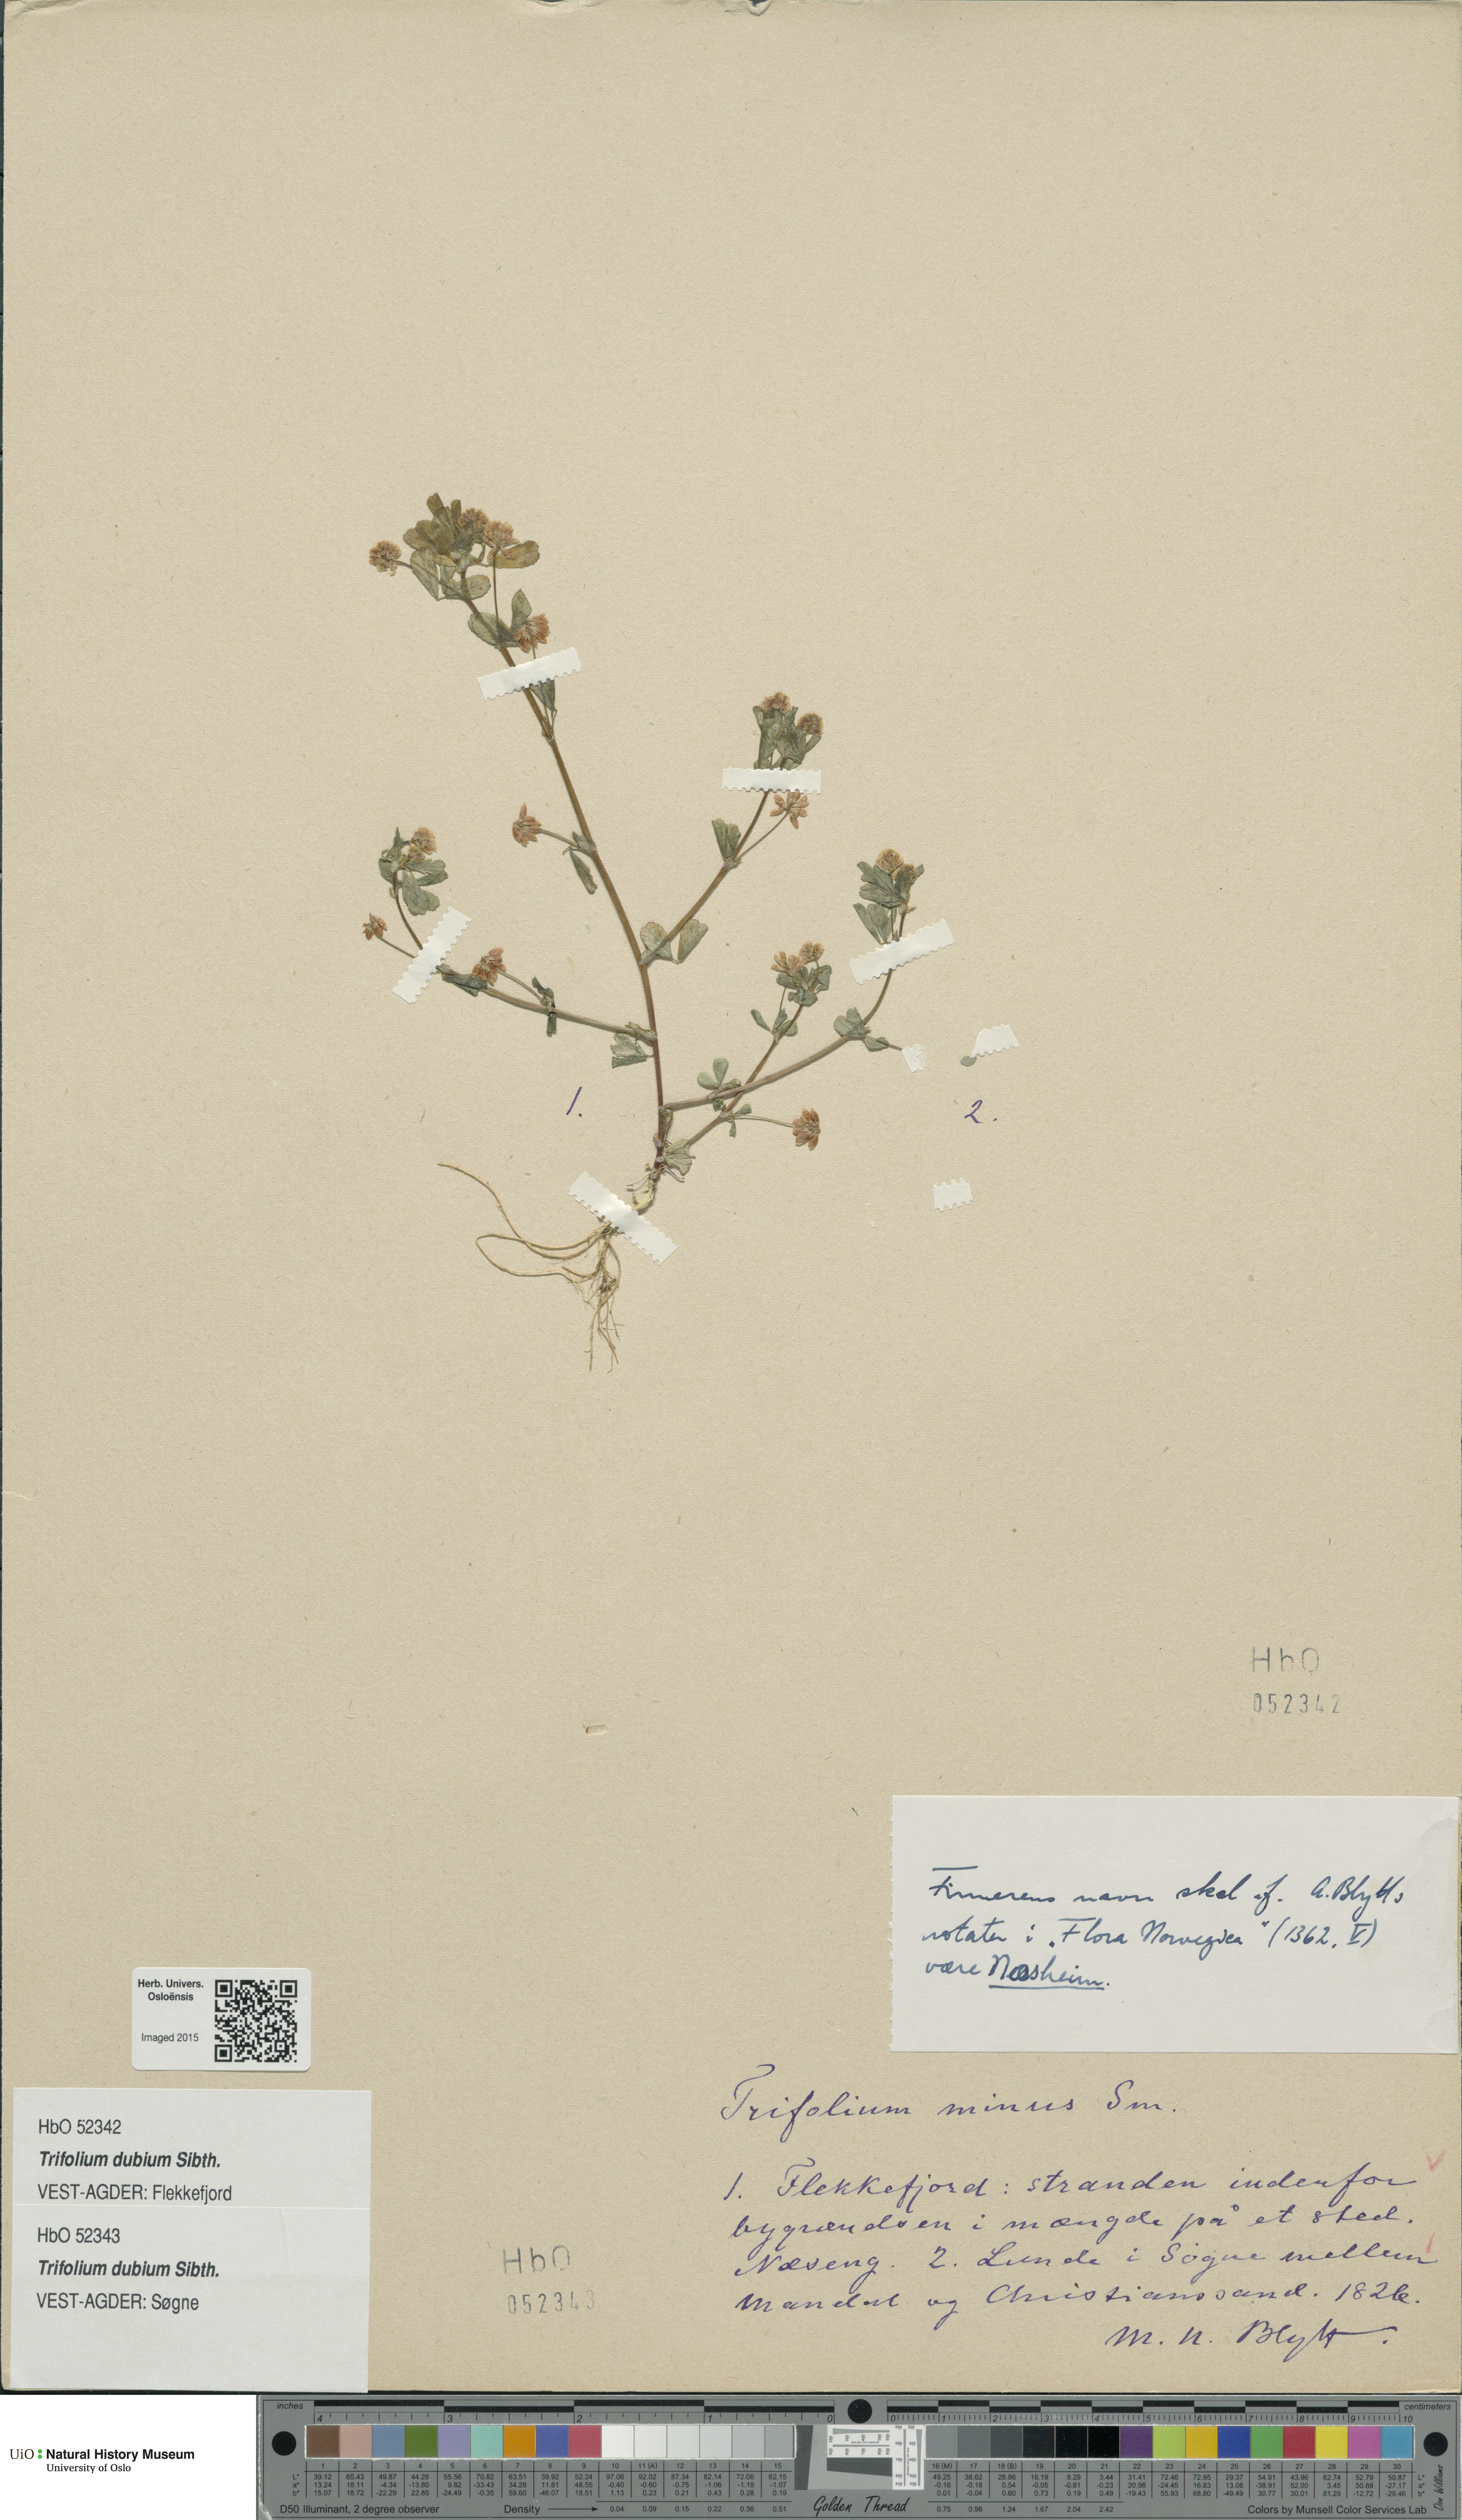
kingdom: Plantae
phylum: Tracheophyta
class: Magnoliopsida
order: Fabales
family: Fabaceae
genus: Trifolium
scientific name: Trifolium dubium
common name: Suckling clover
